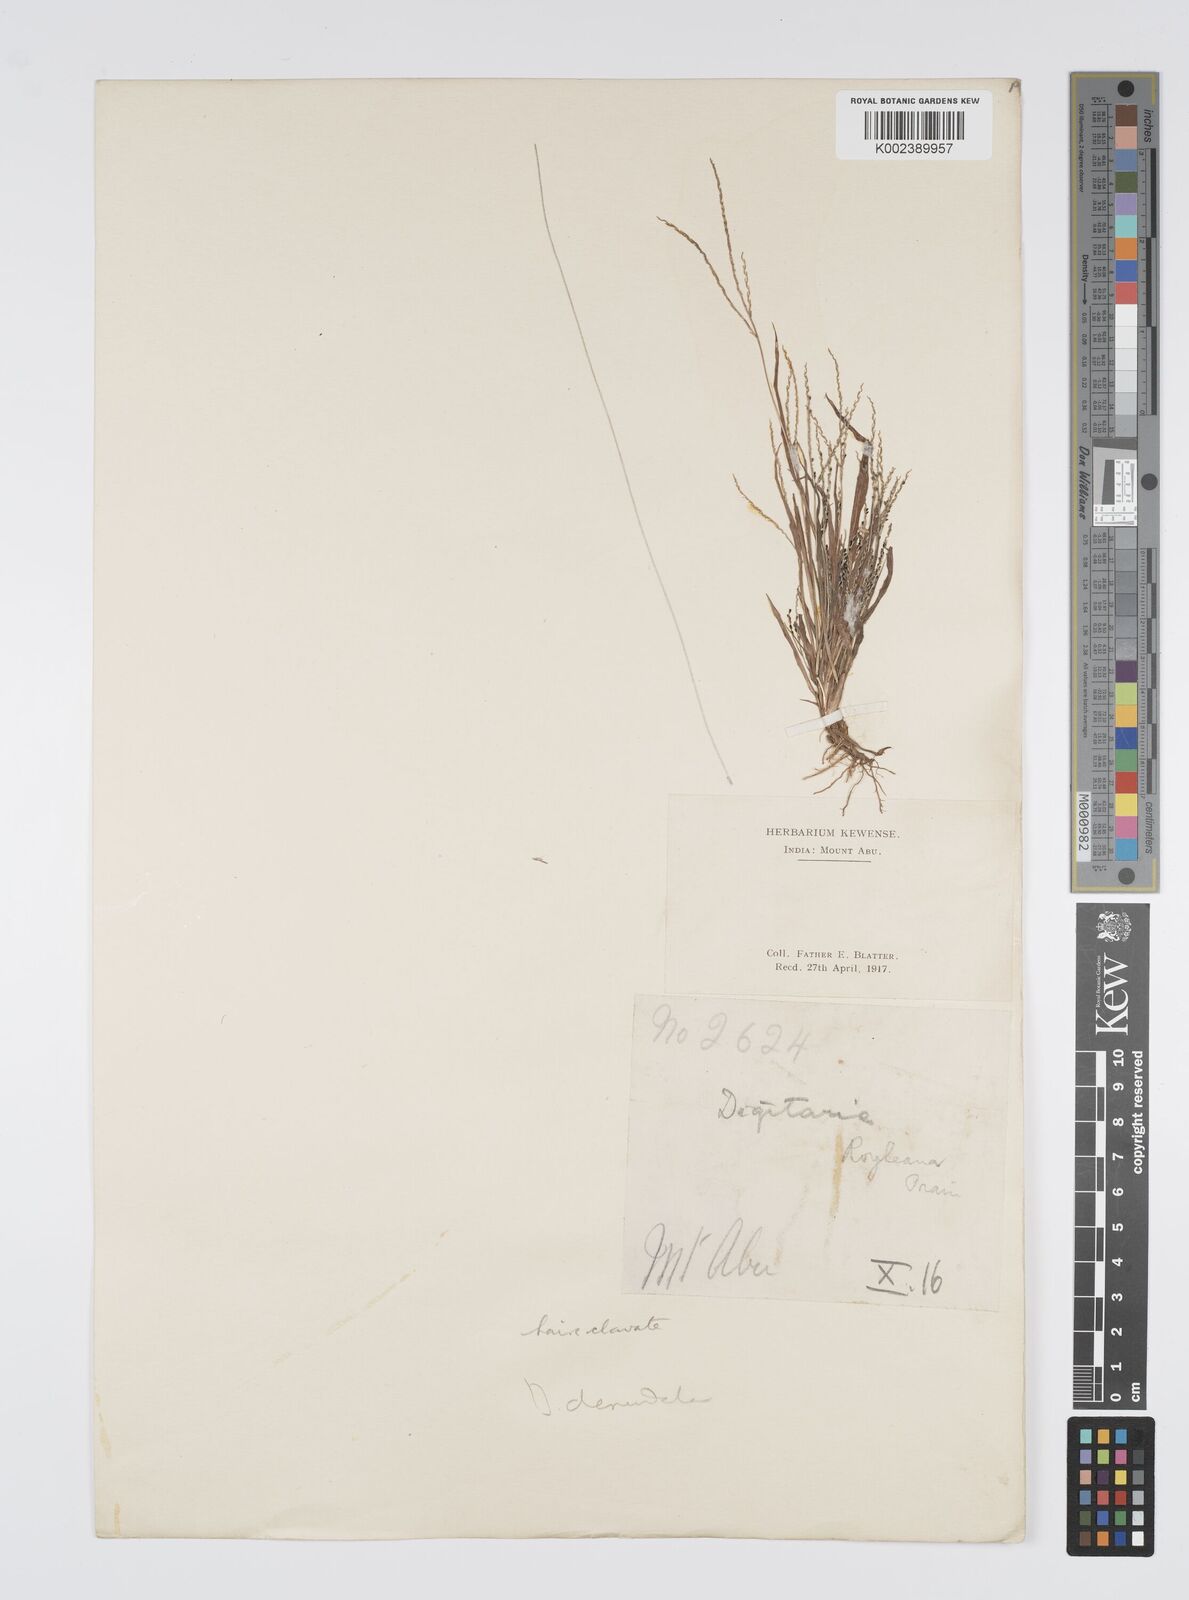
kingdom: Plantae
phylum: Tracheophyta
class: Liliopsida
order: Poales
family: Poaceae
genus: Digitaria
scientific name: Digitaria stricta
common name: Crabgrass
